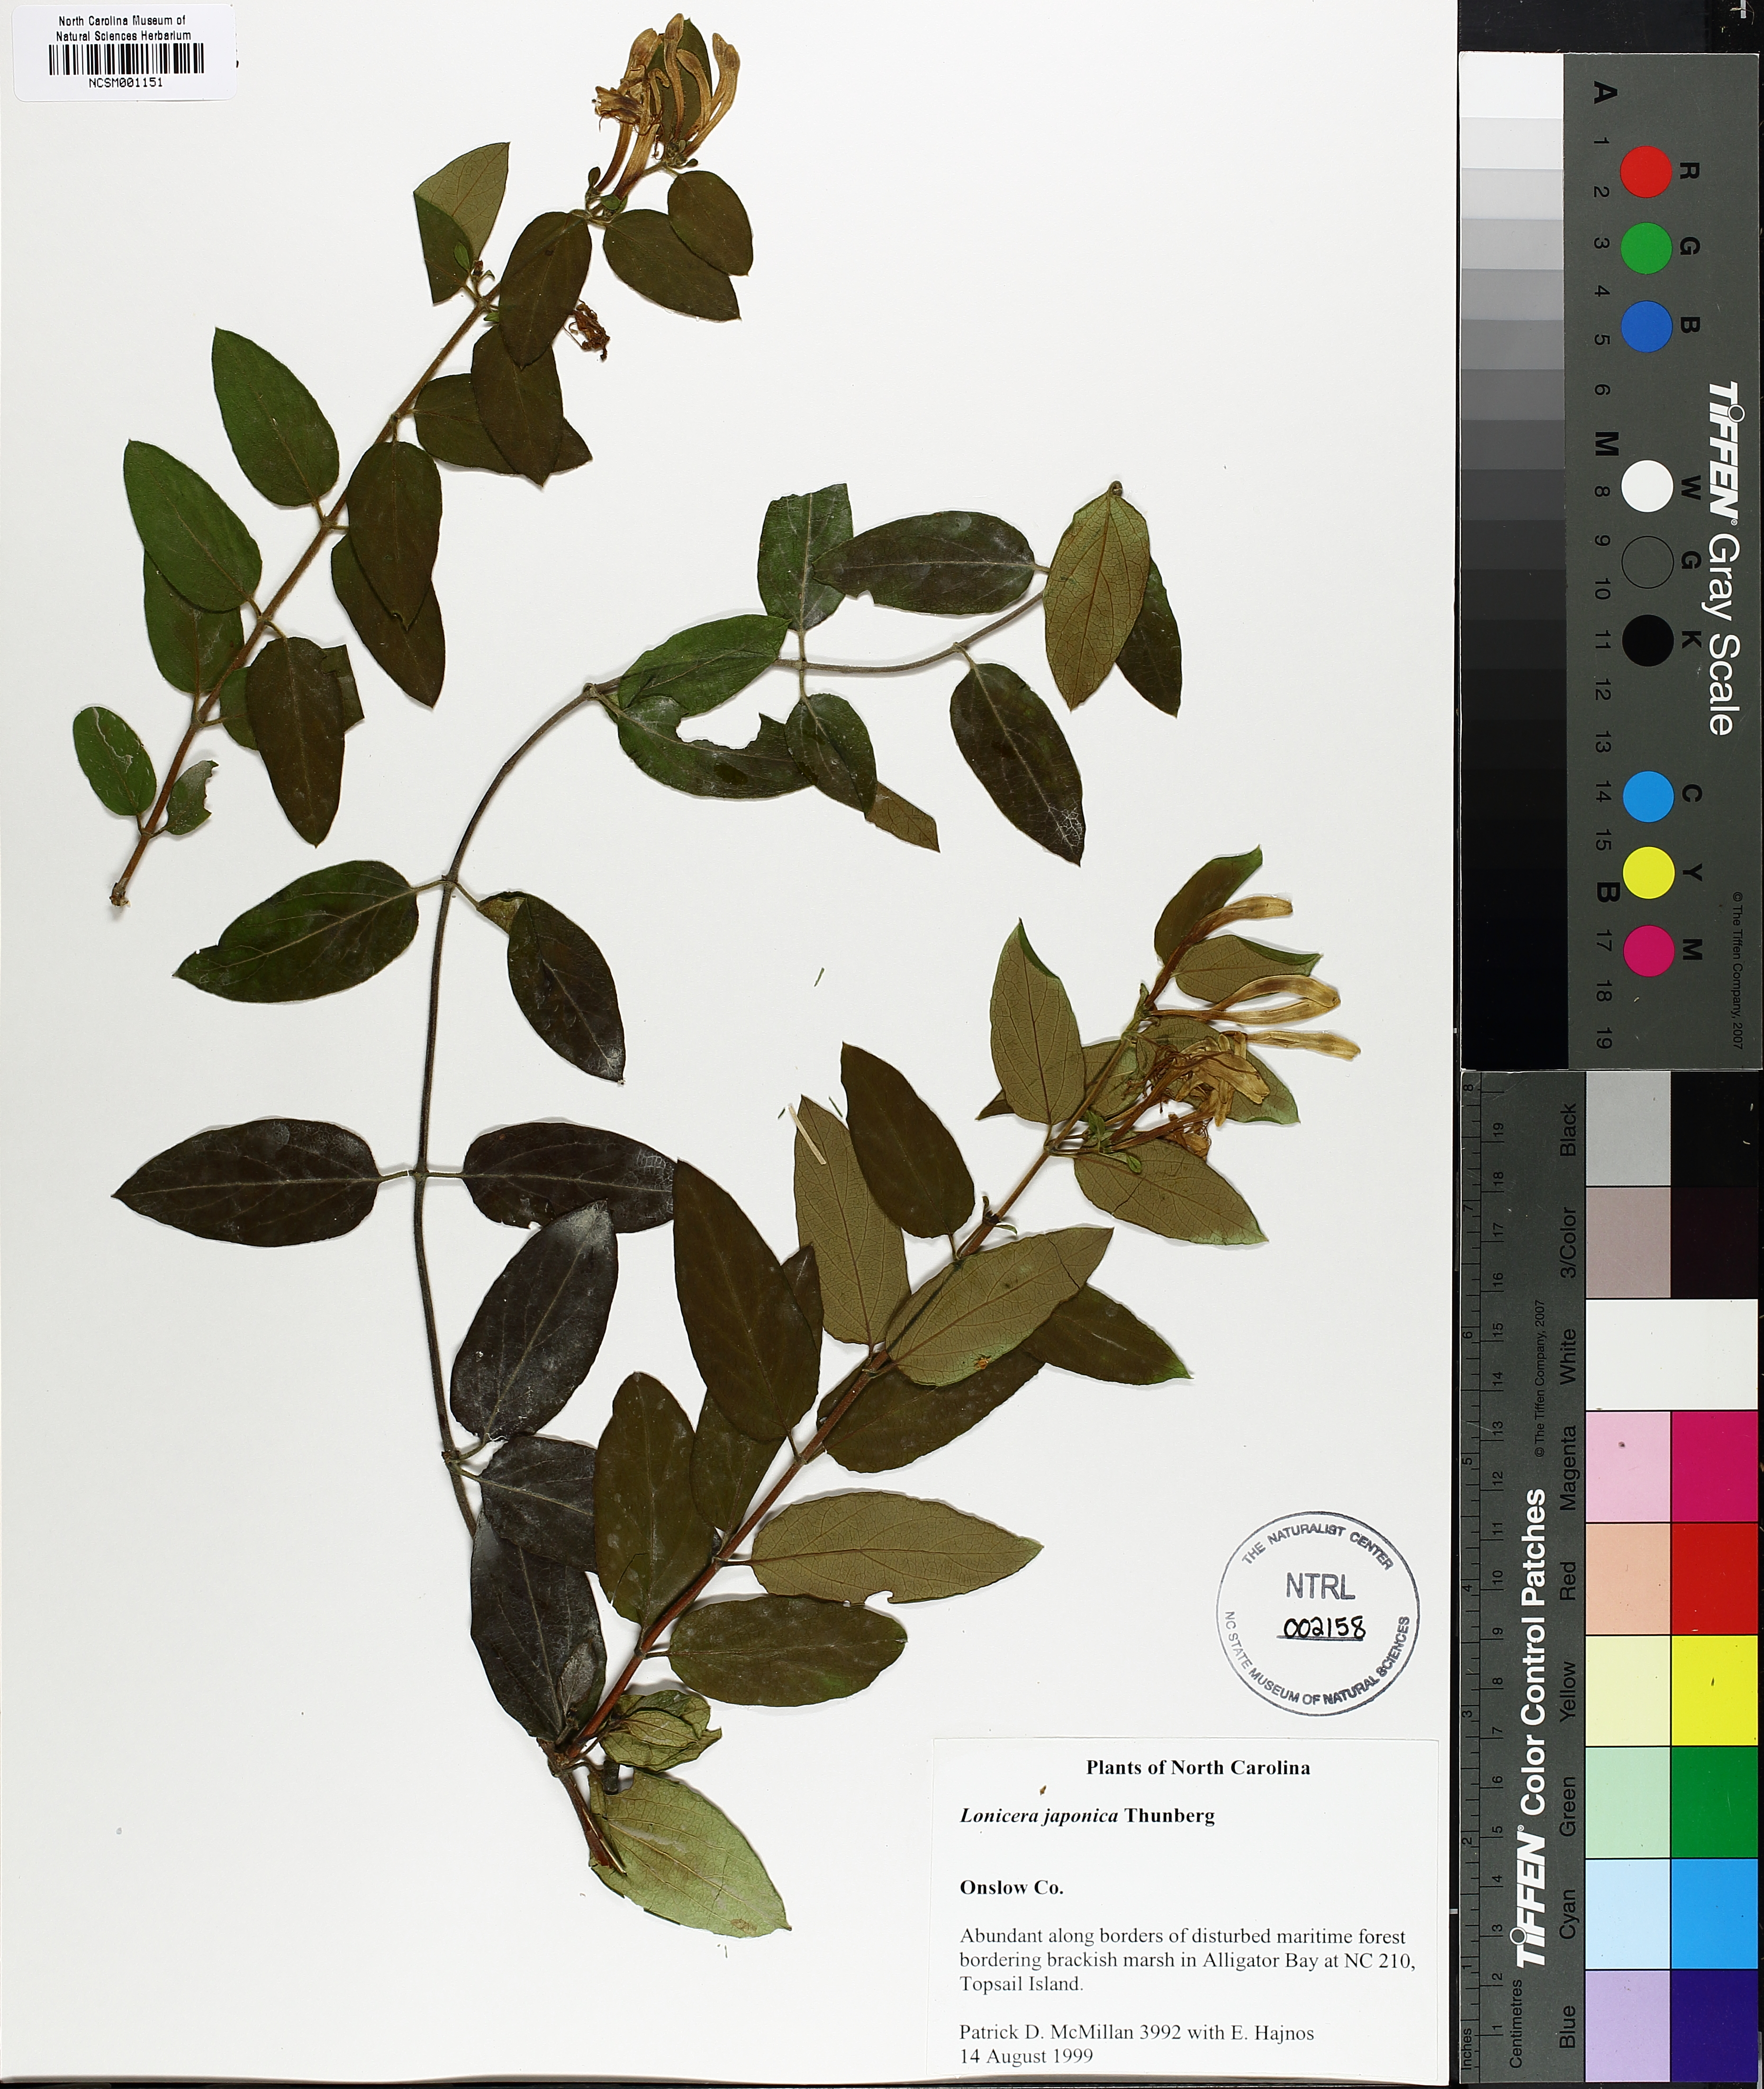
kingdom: Plantae
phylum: Tracheophyta
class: Magnoliopsida
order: Dipsacales
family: Caprifoliaceae
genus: Lonicera
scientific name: Lonicera japonica
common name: Japanese honeysuckle
